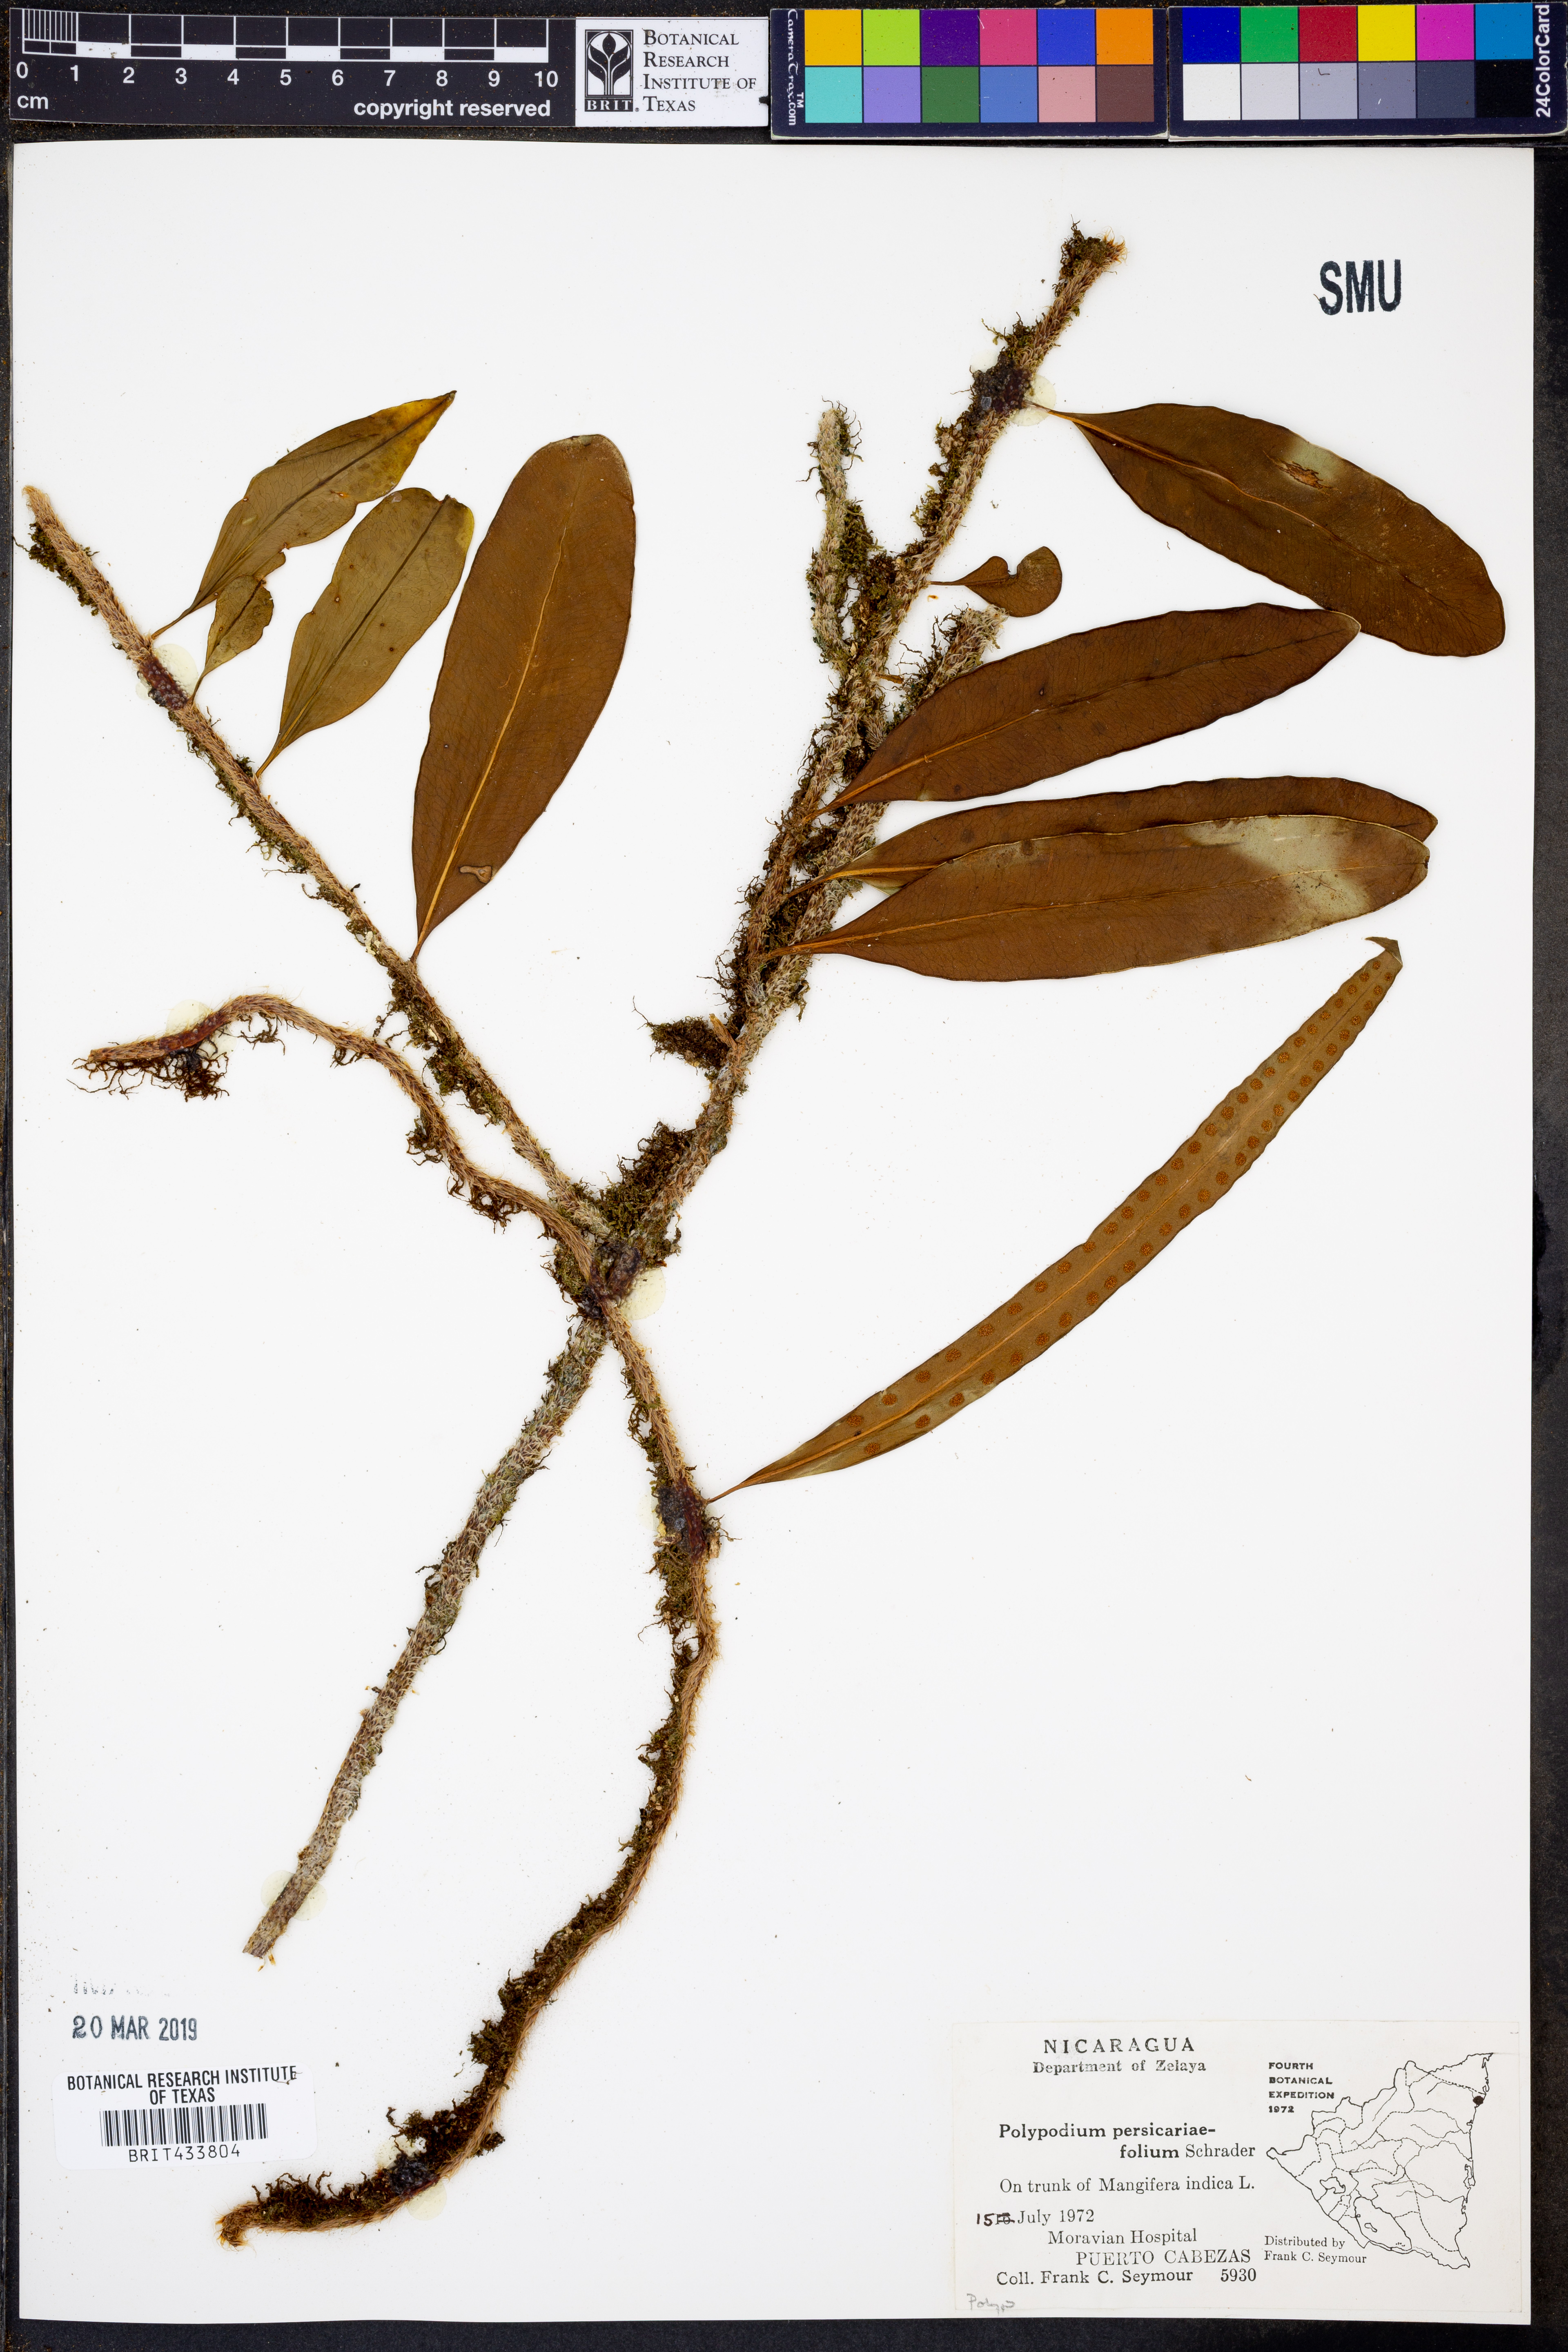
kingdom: Plantae
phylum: Tracheophyta
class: Polypodiopsida
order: Polypodiales
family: Polypodiaceae
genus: Microgramma
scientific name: Microgramma persicariifolia
